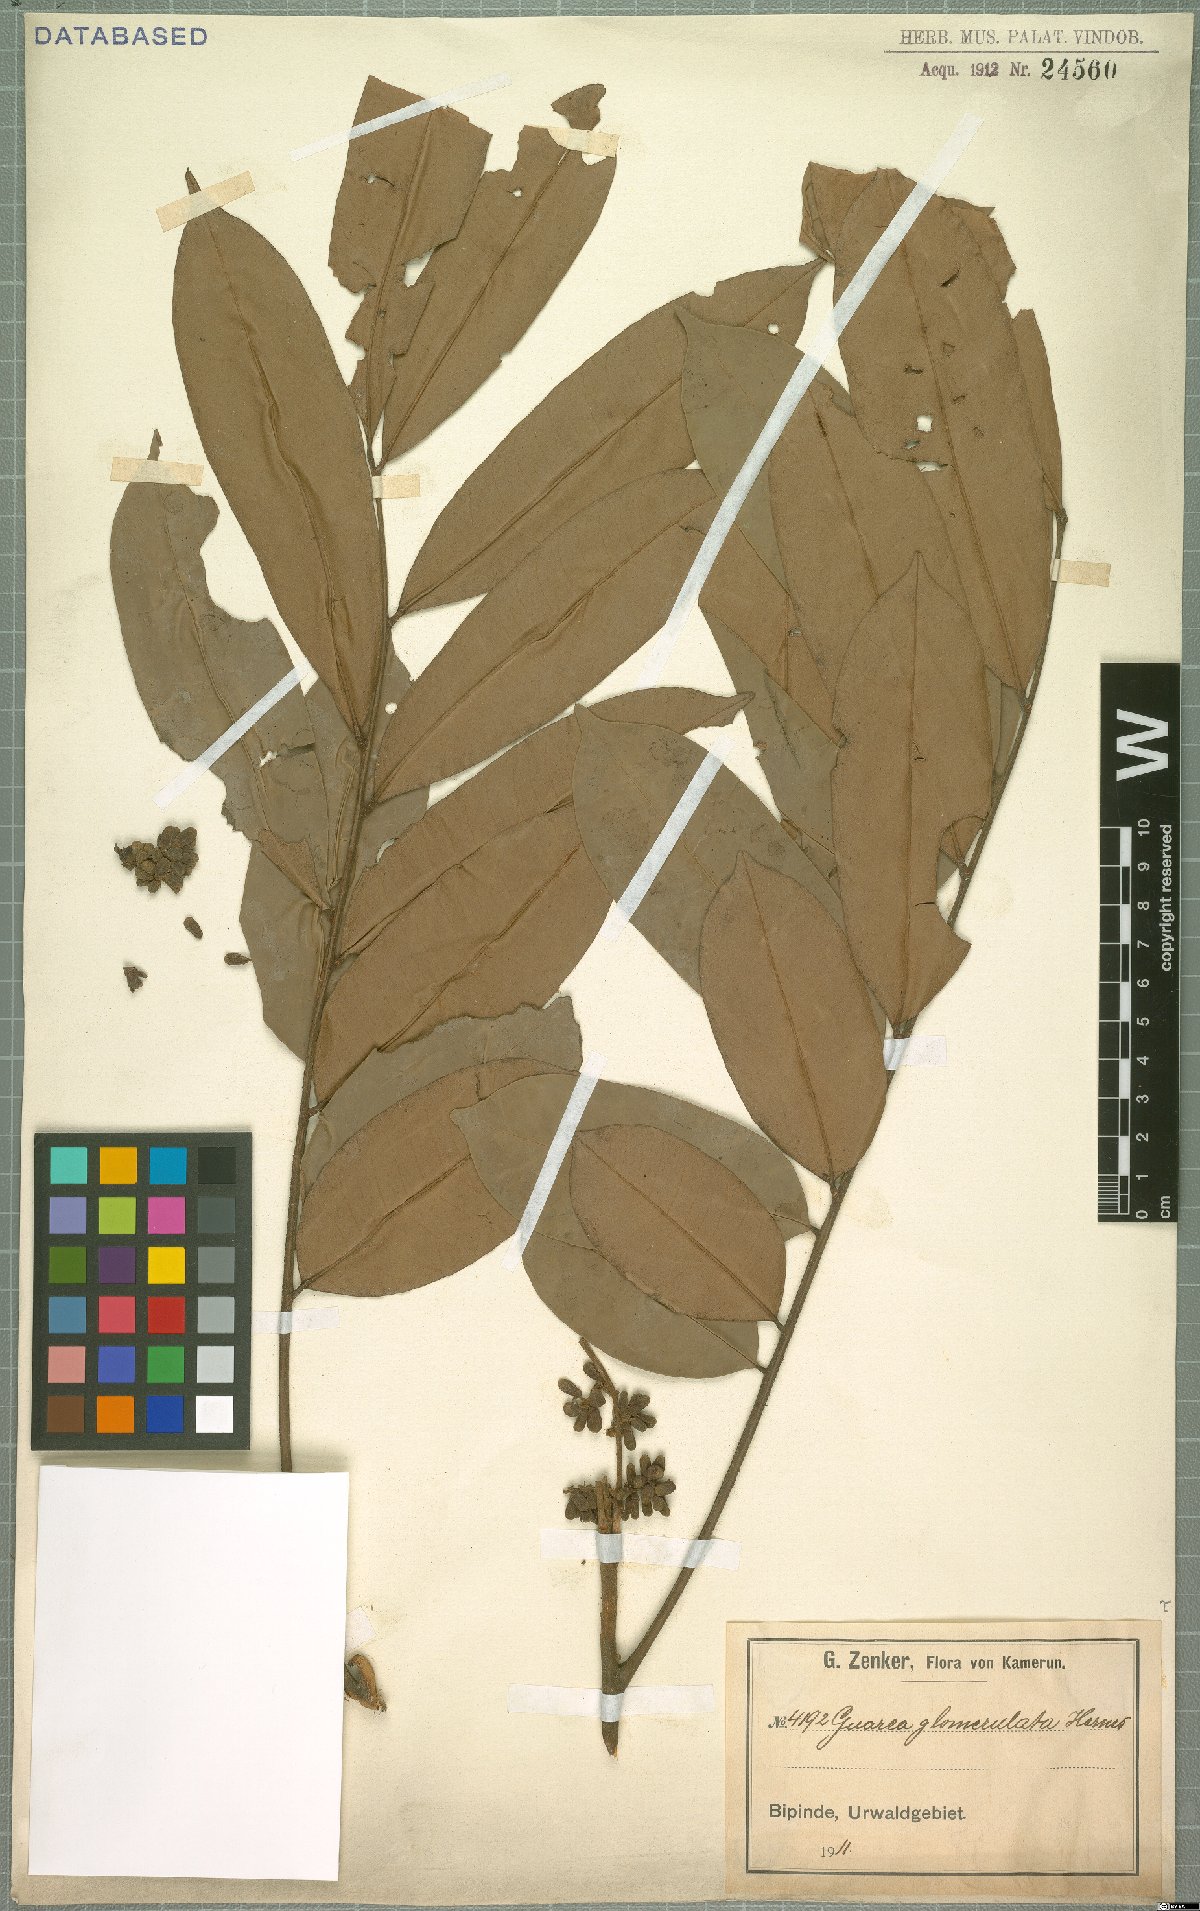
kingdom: Plantae
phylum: Tracheophyta
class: Magnoliopsida
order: Sapindales
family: Meliaceae
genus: Neoguarea
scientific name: Neoguarea glomerulata
